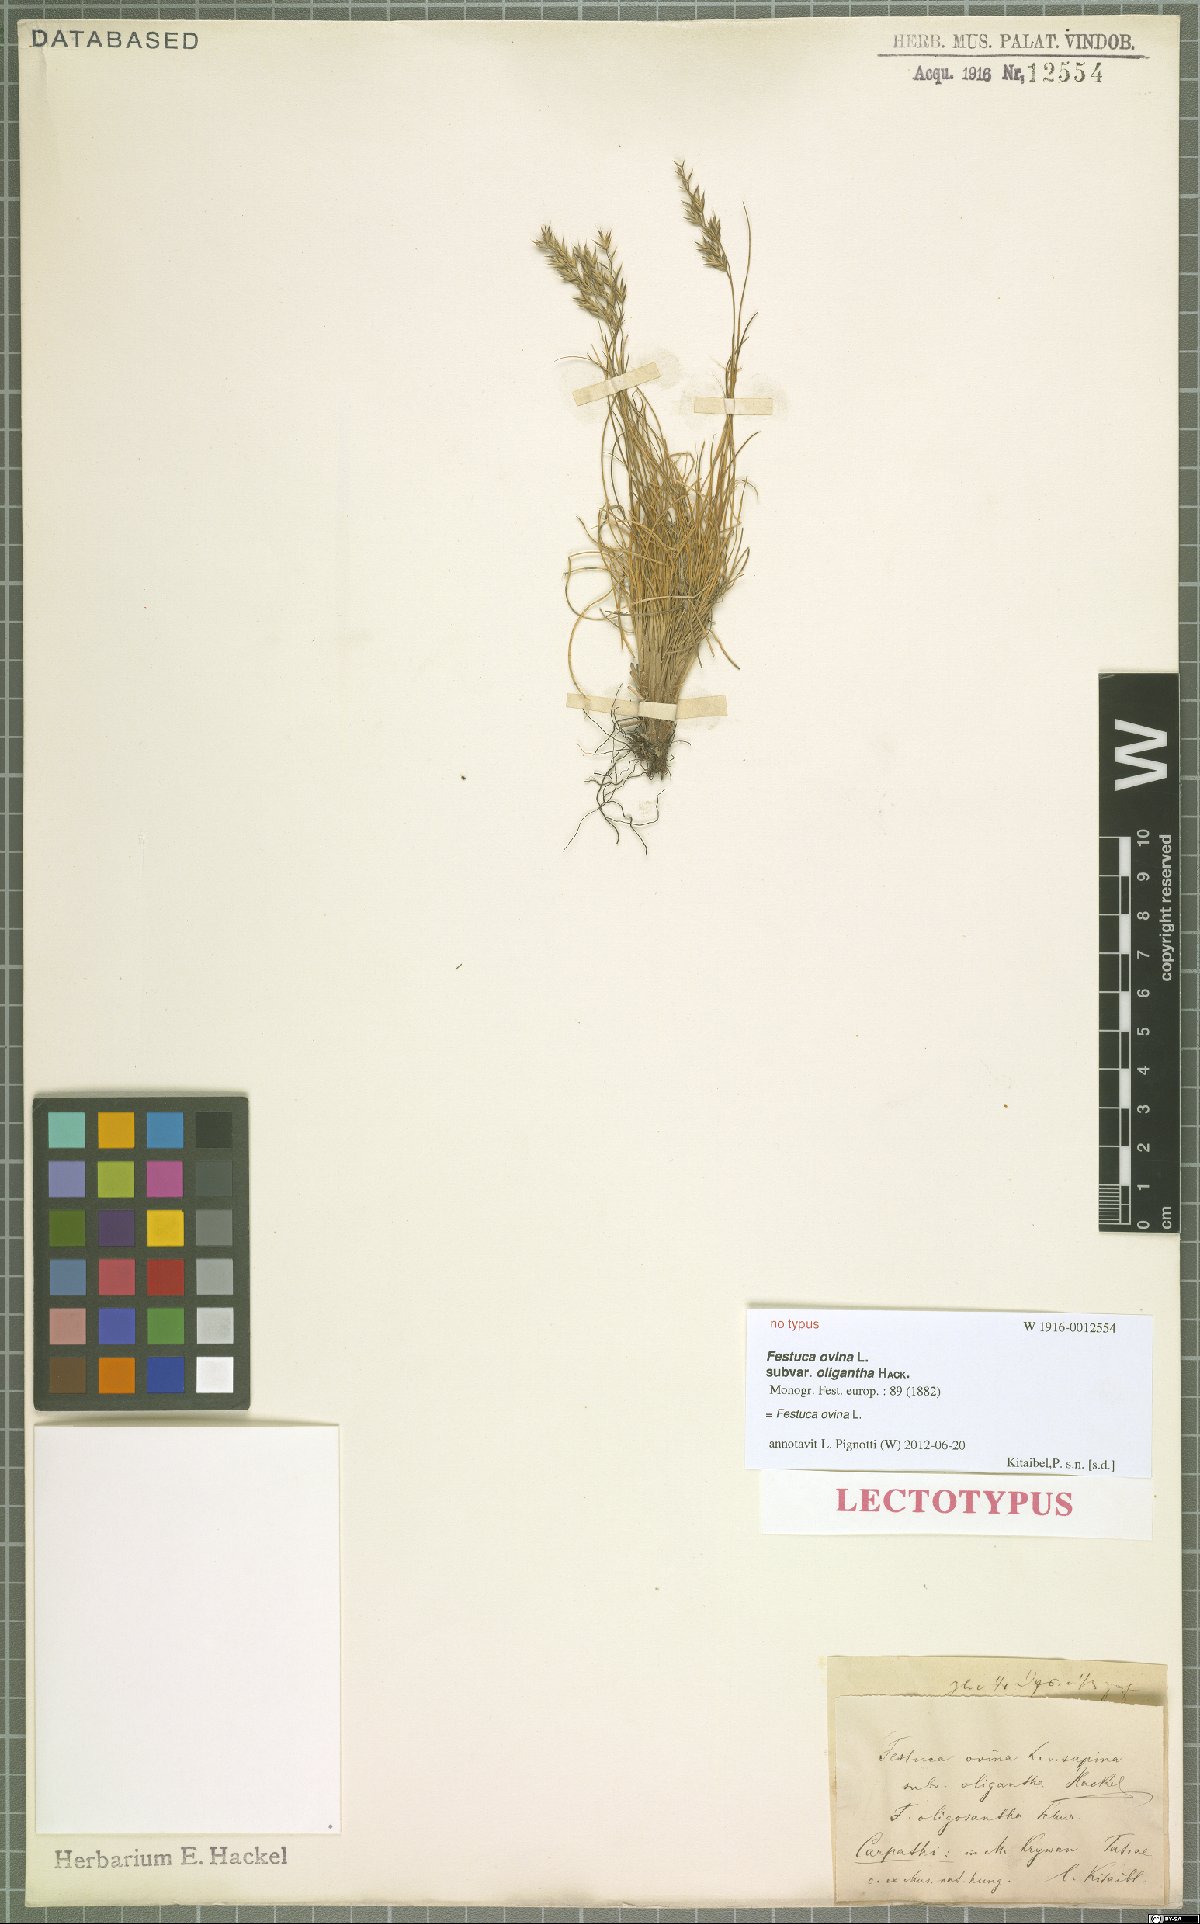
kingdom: Plantae
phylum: Tracheophyta
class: Liliopsida
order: Poales
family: Poaceae
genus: Festuca
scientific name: Festuca ovina
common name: Sheep fescue
